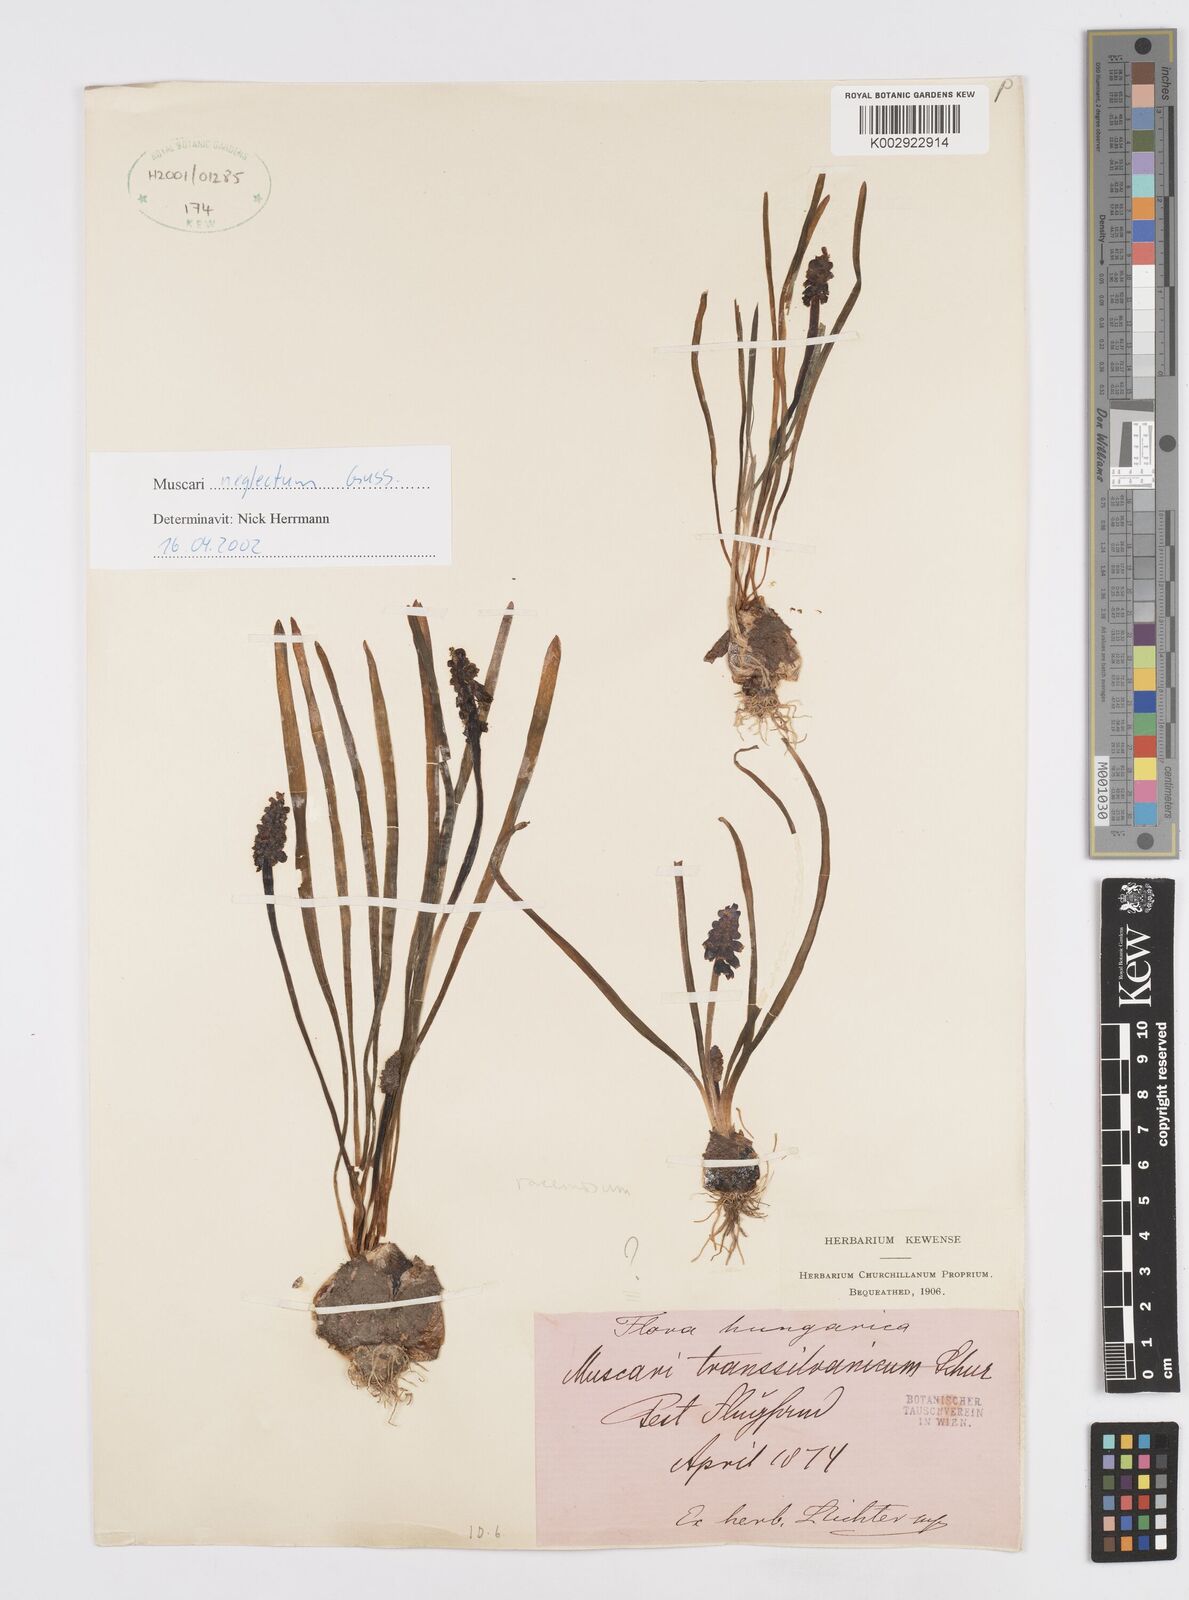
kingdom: Plantae
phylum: Tracheophyta
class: Liliopsida
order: Asparagales
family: Asparagaceae
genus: Muscarimia
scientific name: Muscarimia muscari
